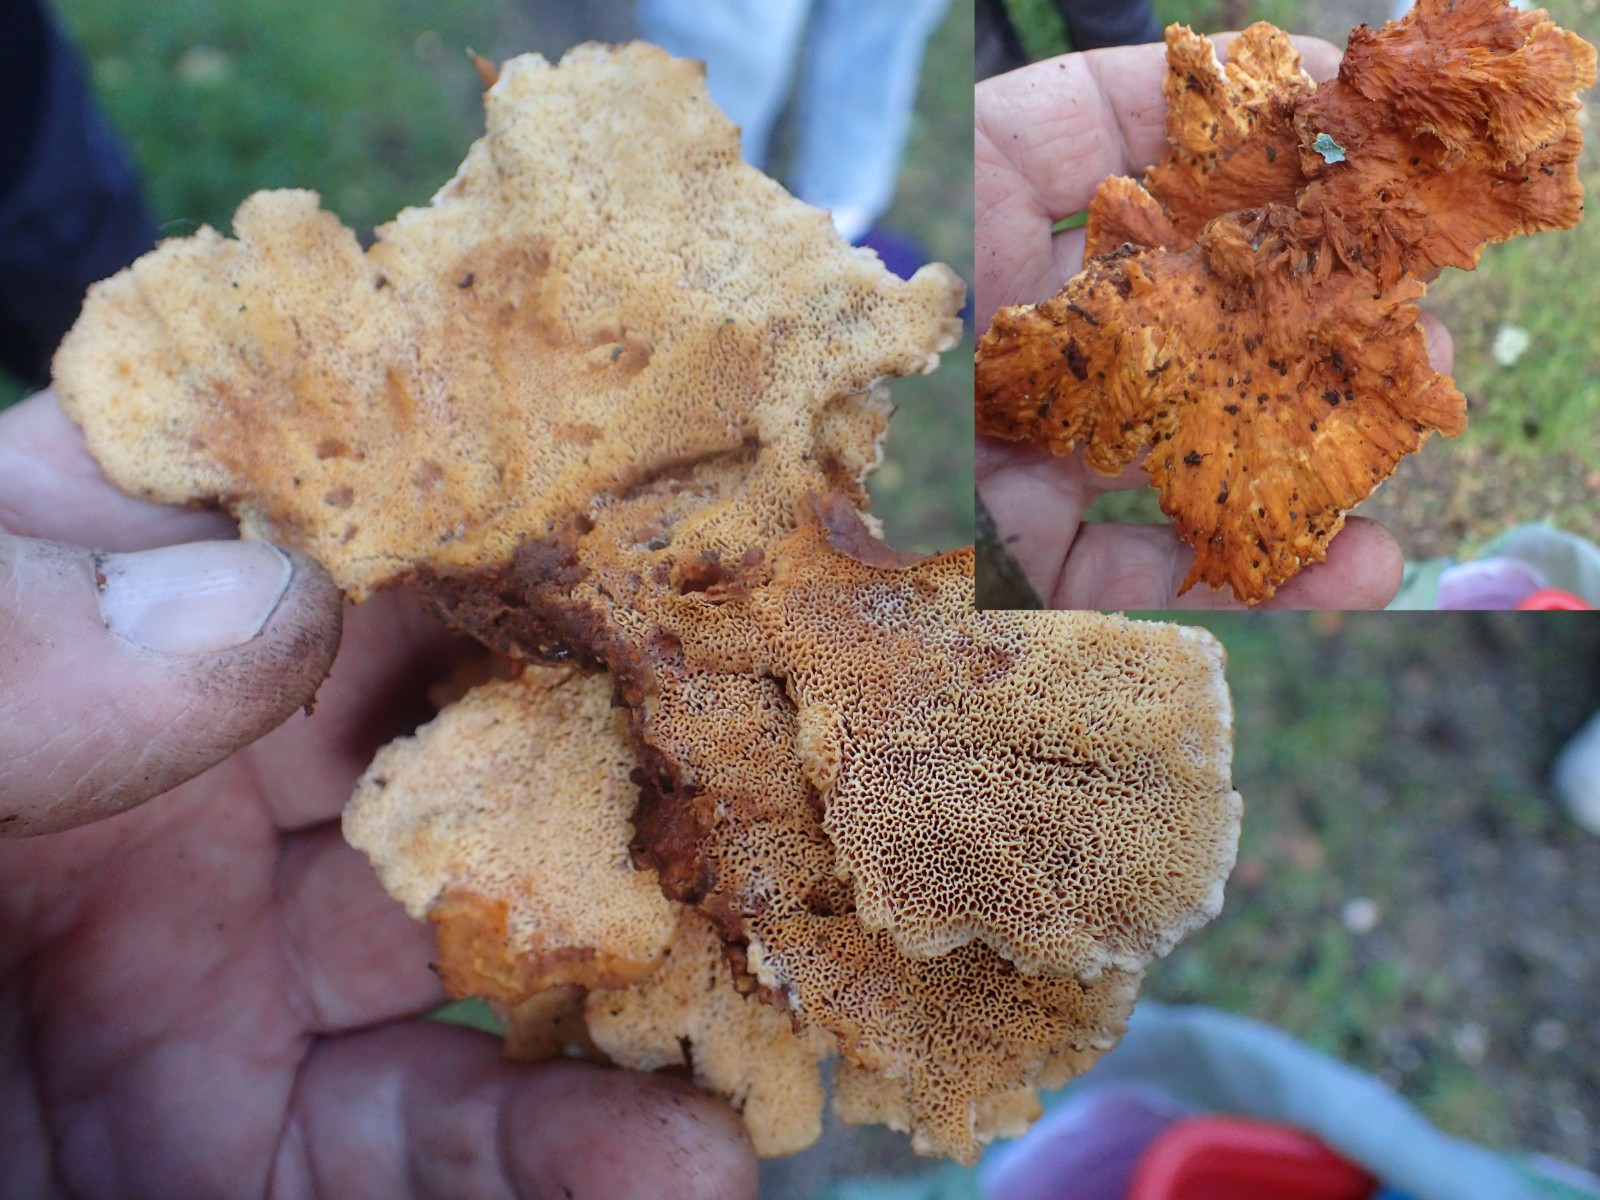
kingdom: Fungi
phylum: Basidiomycota
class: Agaricomycetes
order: Polyporales
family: Pycnoporellaceae
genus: Pycnoporellus
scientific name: Pycnoporellus fulgens
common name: flammeporesvamp
